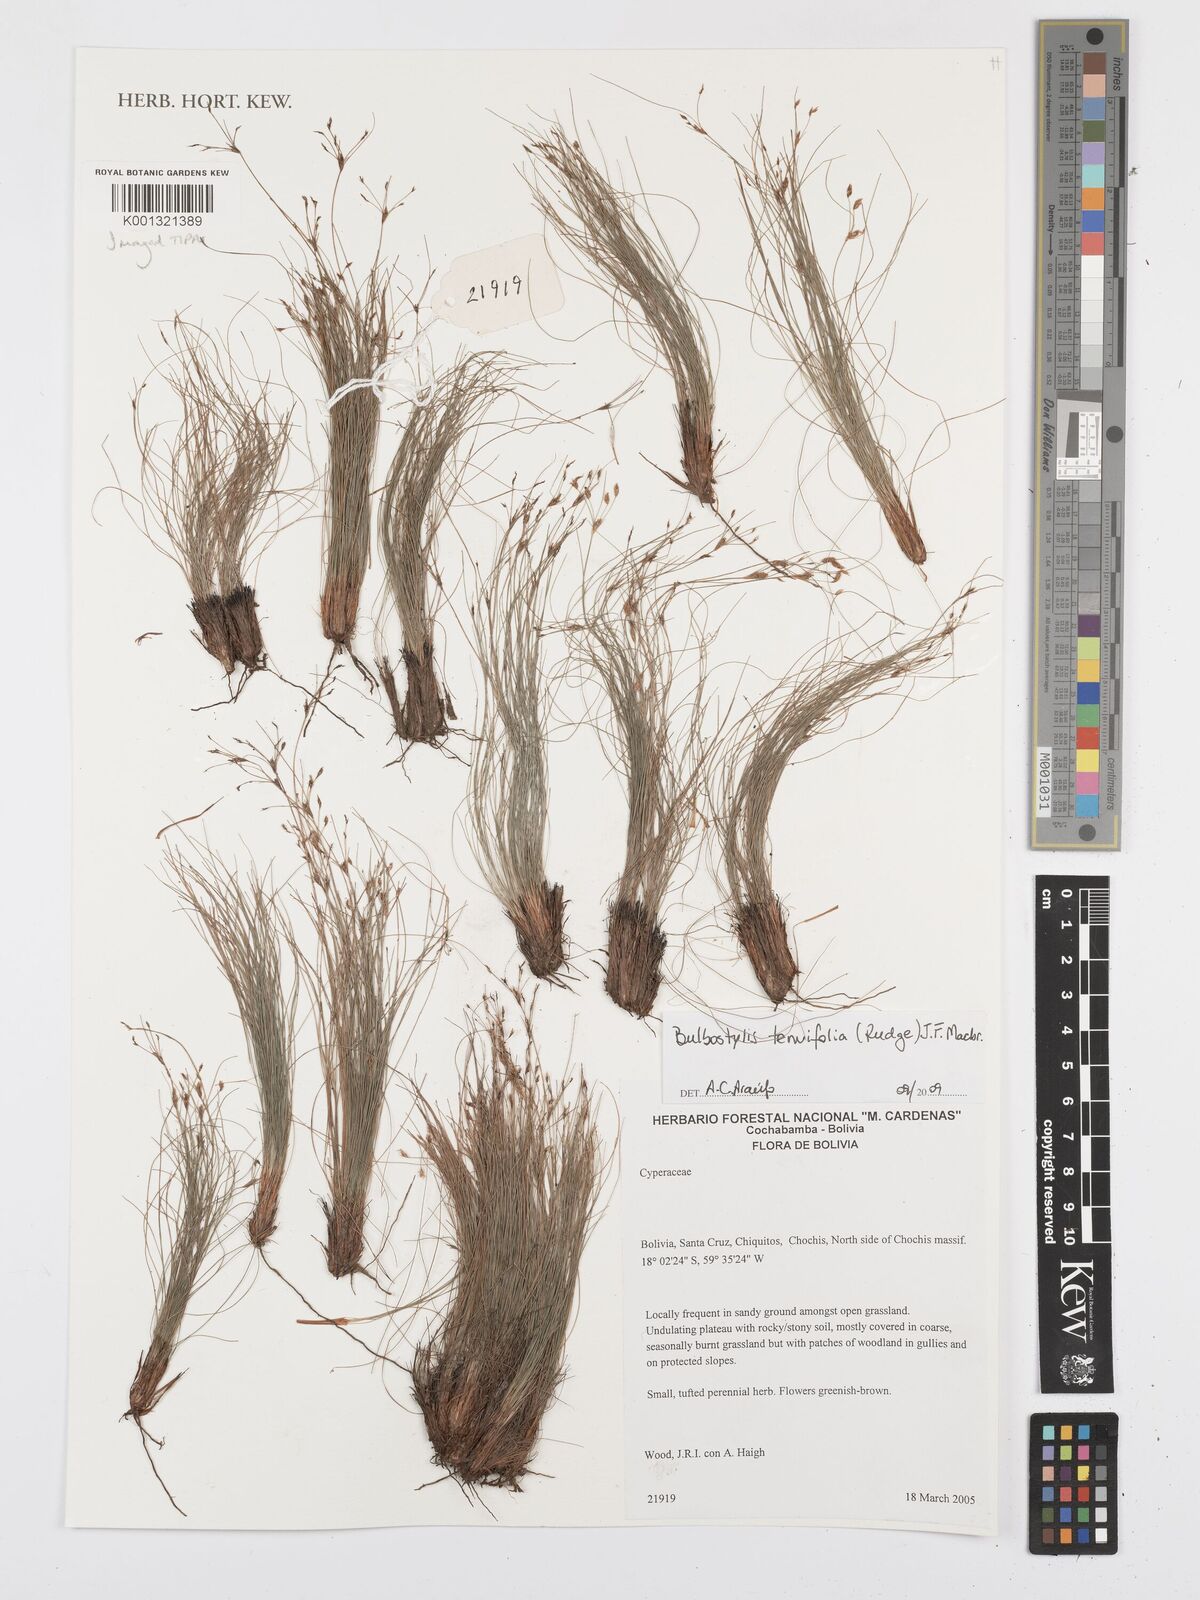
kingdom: Plantae
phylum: Tracheophyta
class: Liliopsida
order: Poales
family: Cyperaceae
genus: Bulbostylis
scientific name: Bulbostylis tenuifolia
